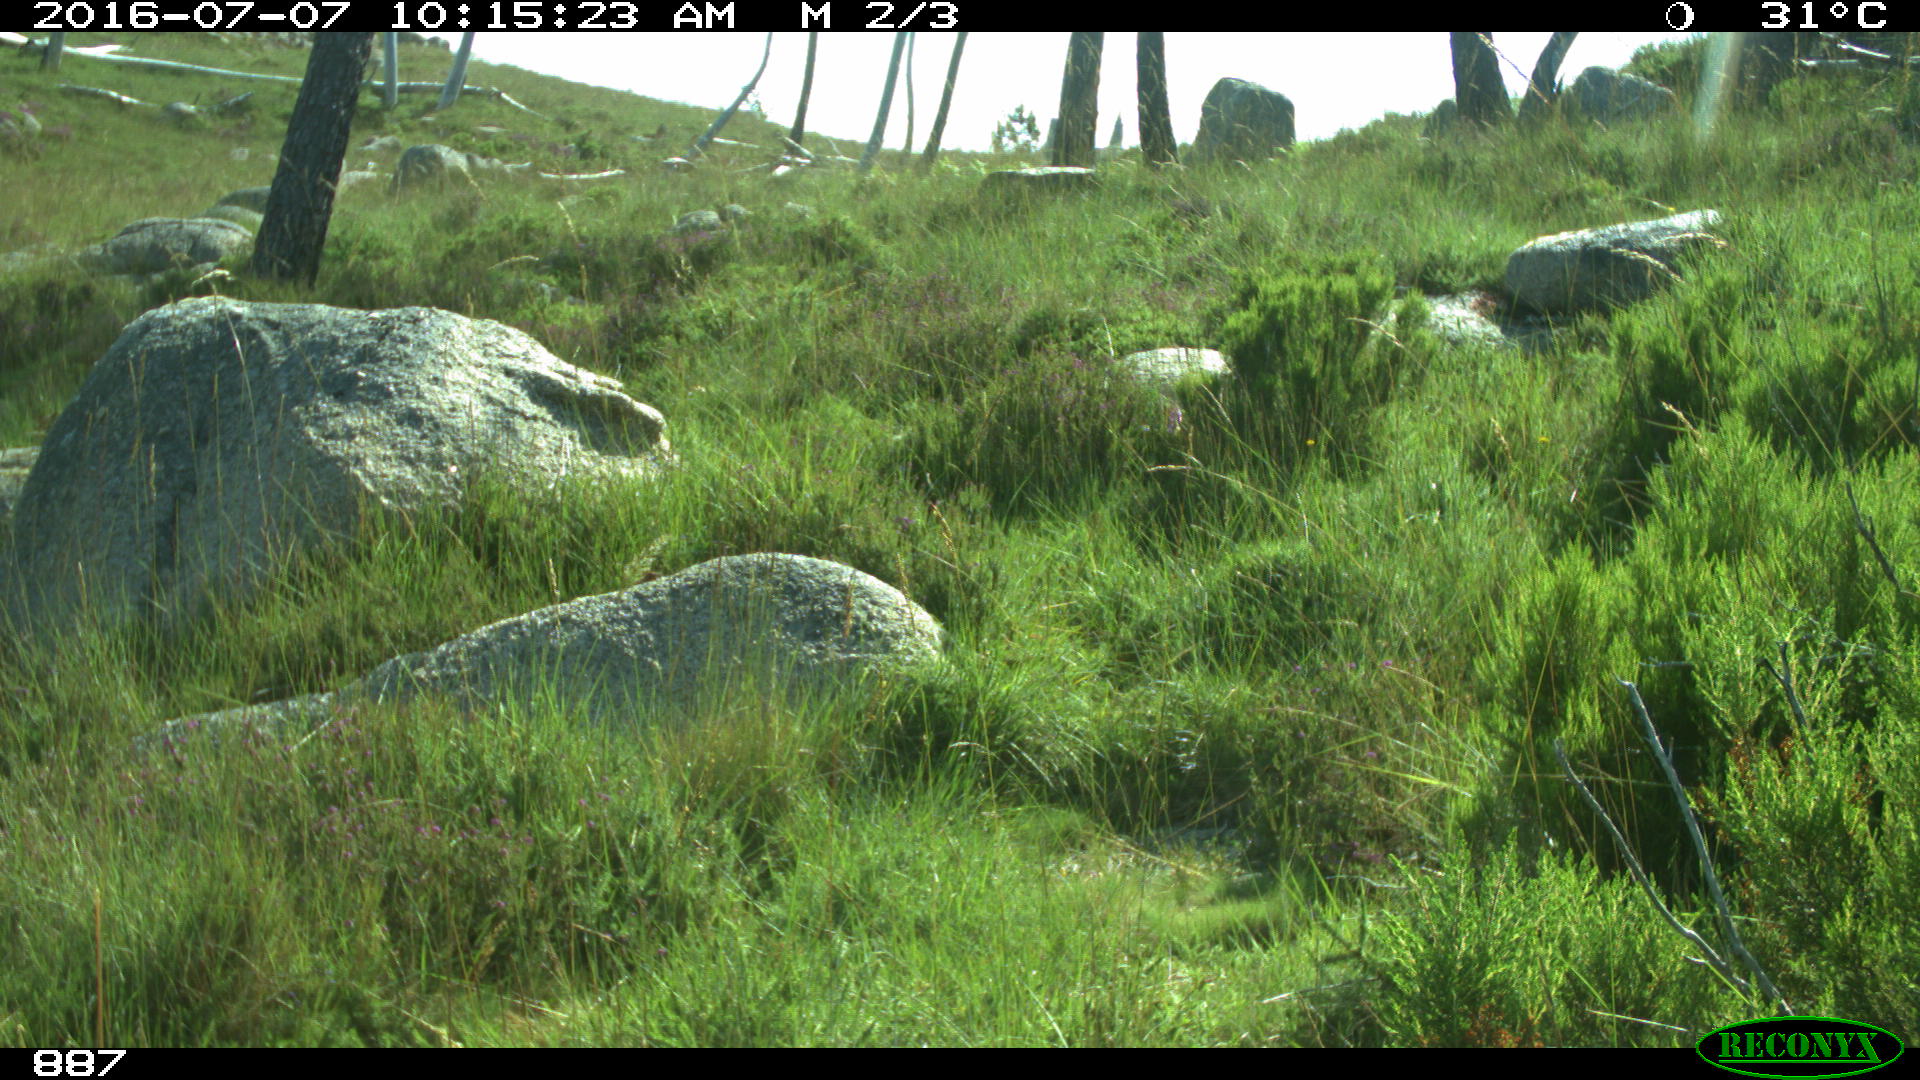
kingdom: Animalia
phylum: Chordata
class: Mammalia
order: Artiodactyla
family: Cervidae
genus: Capreolus
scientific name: Capreolus capreolus
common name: Western roe deer
